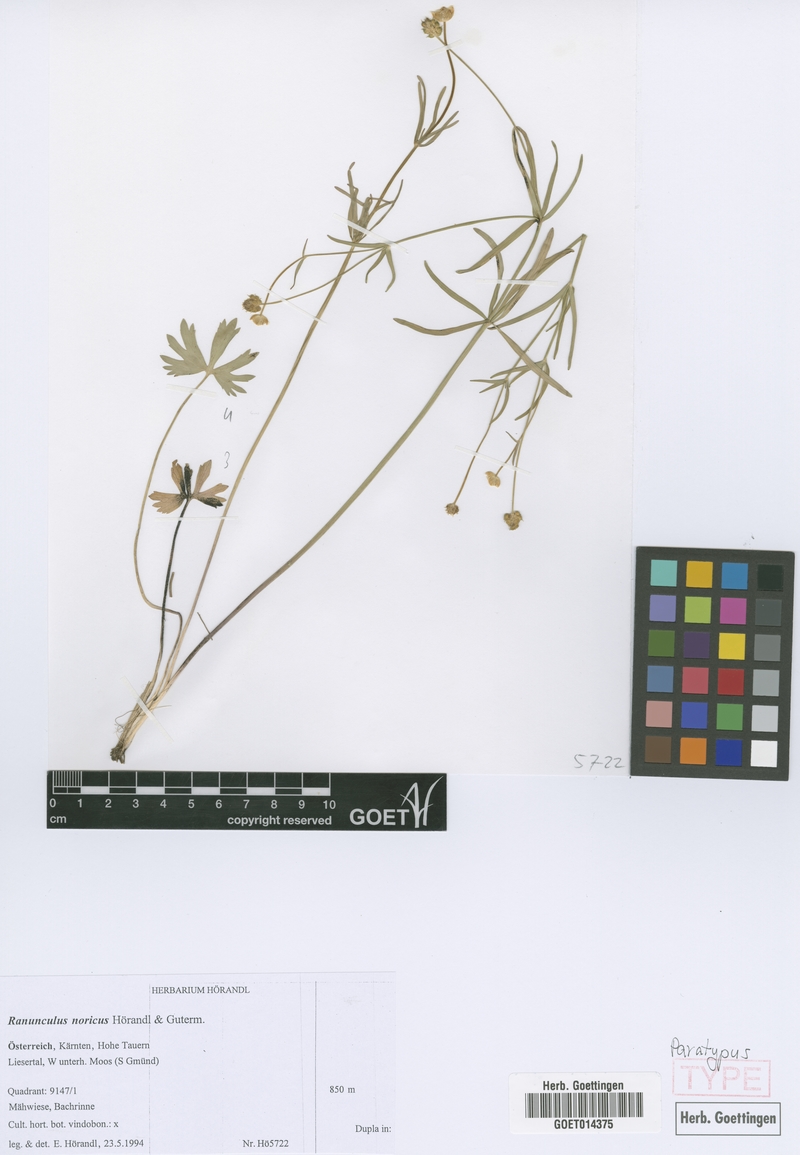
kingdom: Plantae
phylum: Tracheophyta
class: Magnoliopsida
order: Ranunculales
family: Ranunculaceae
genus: Ranunculus
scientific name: Ranunculus noricus
